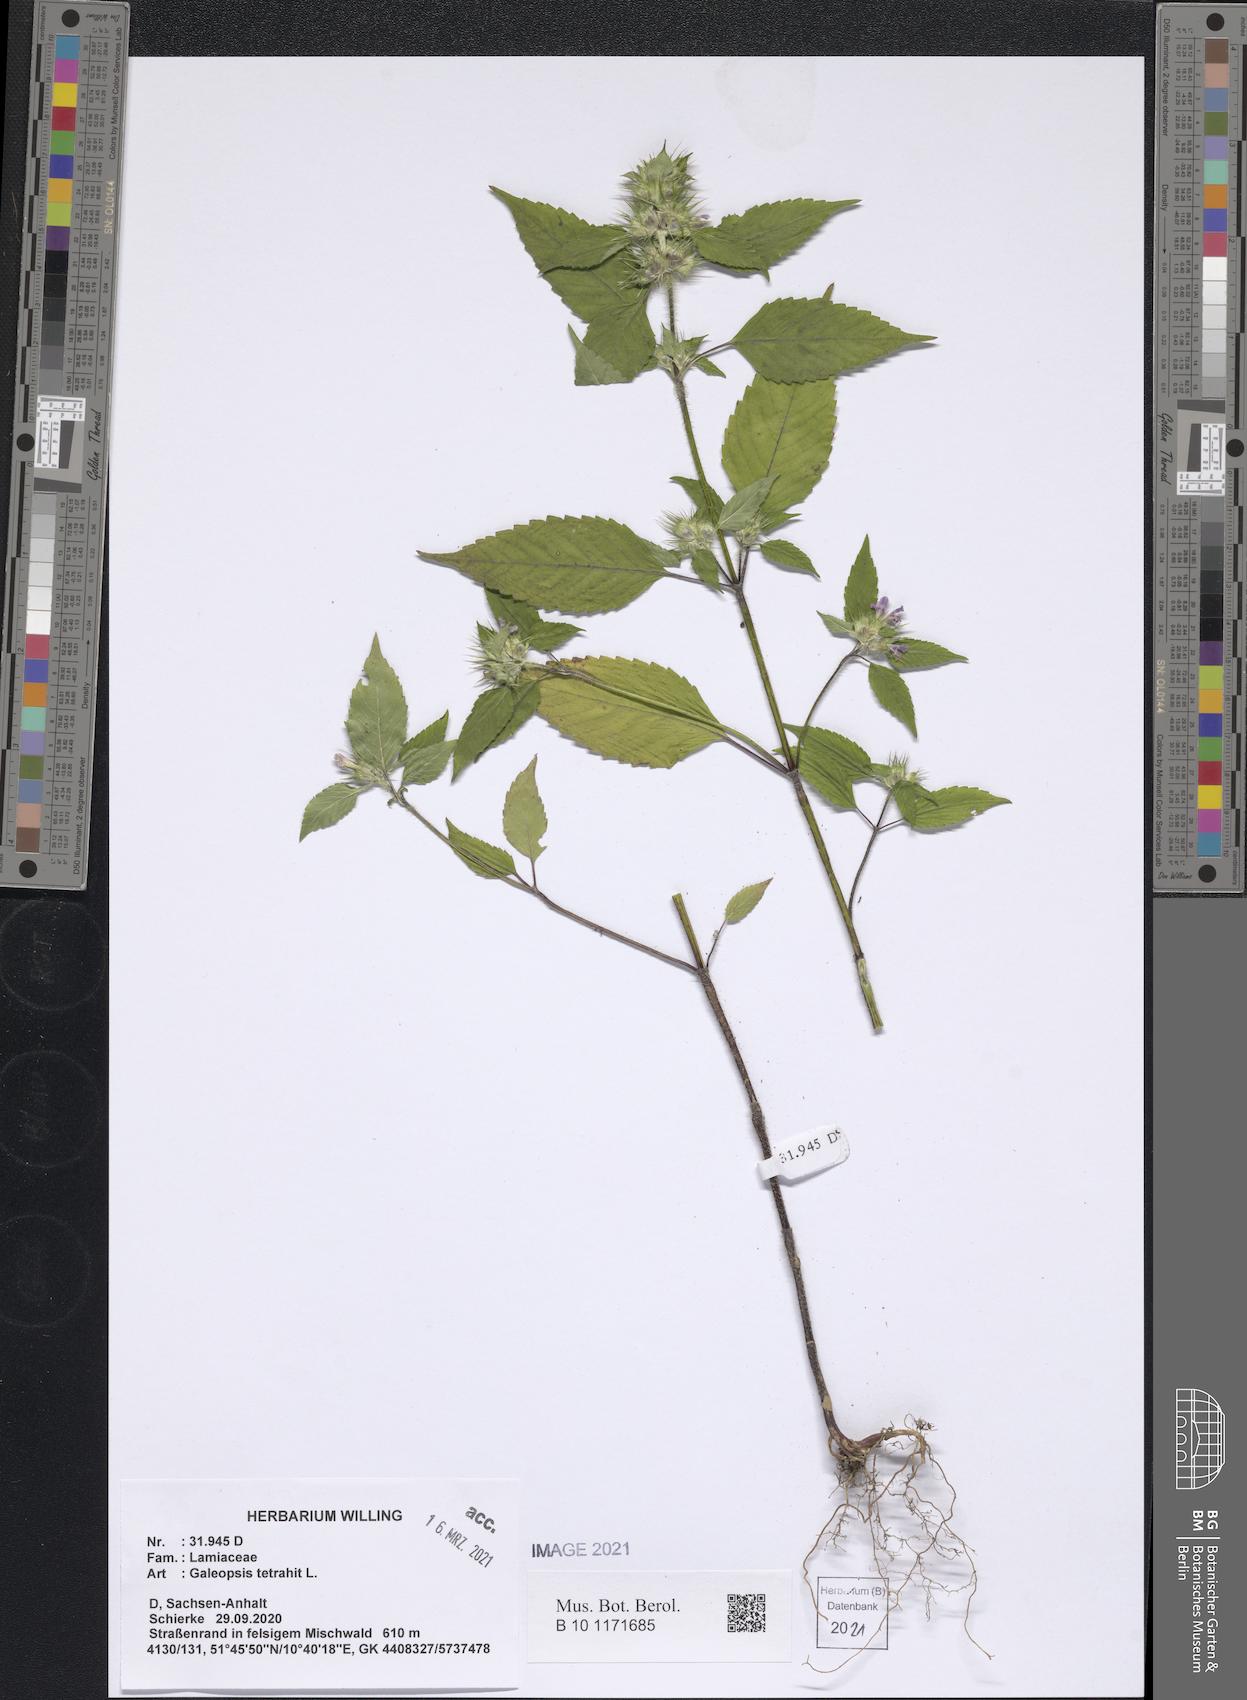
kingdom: Plantae
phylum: Tracheophyta
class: Magnoliopsida
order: Lamiales
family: Lamiaceae
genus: Galeopsis
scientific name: Galeopsis tetrahit
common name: Common hemp-nettle
